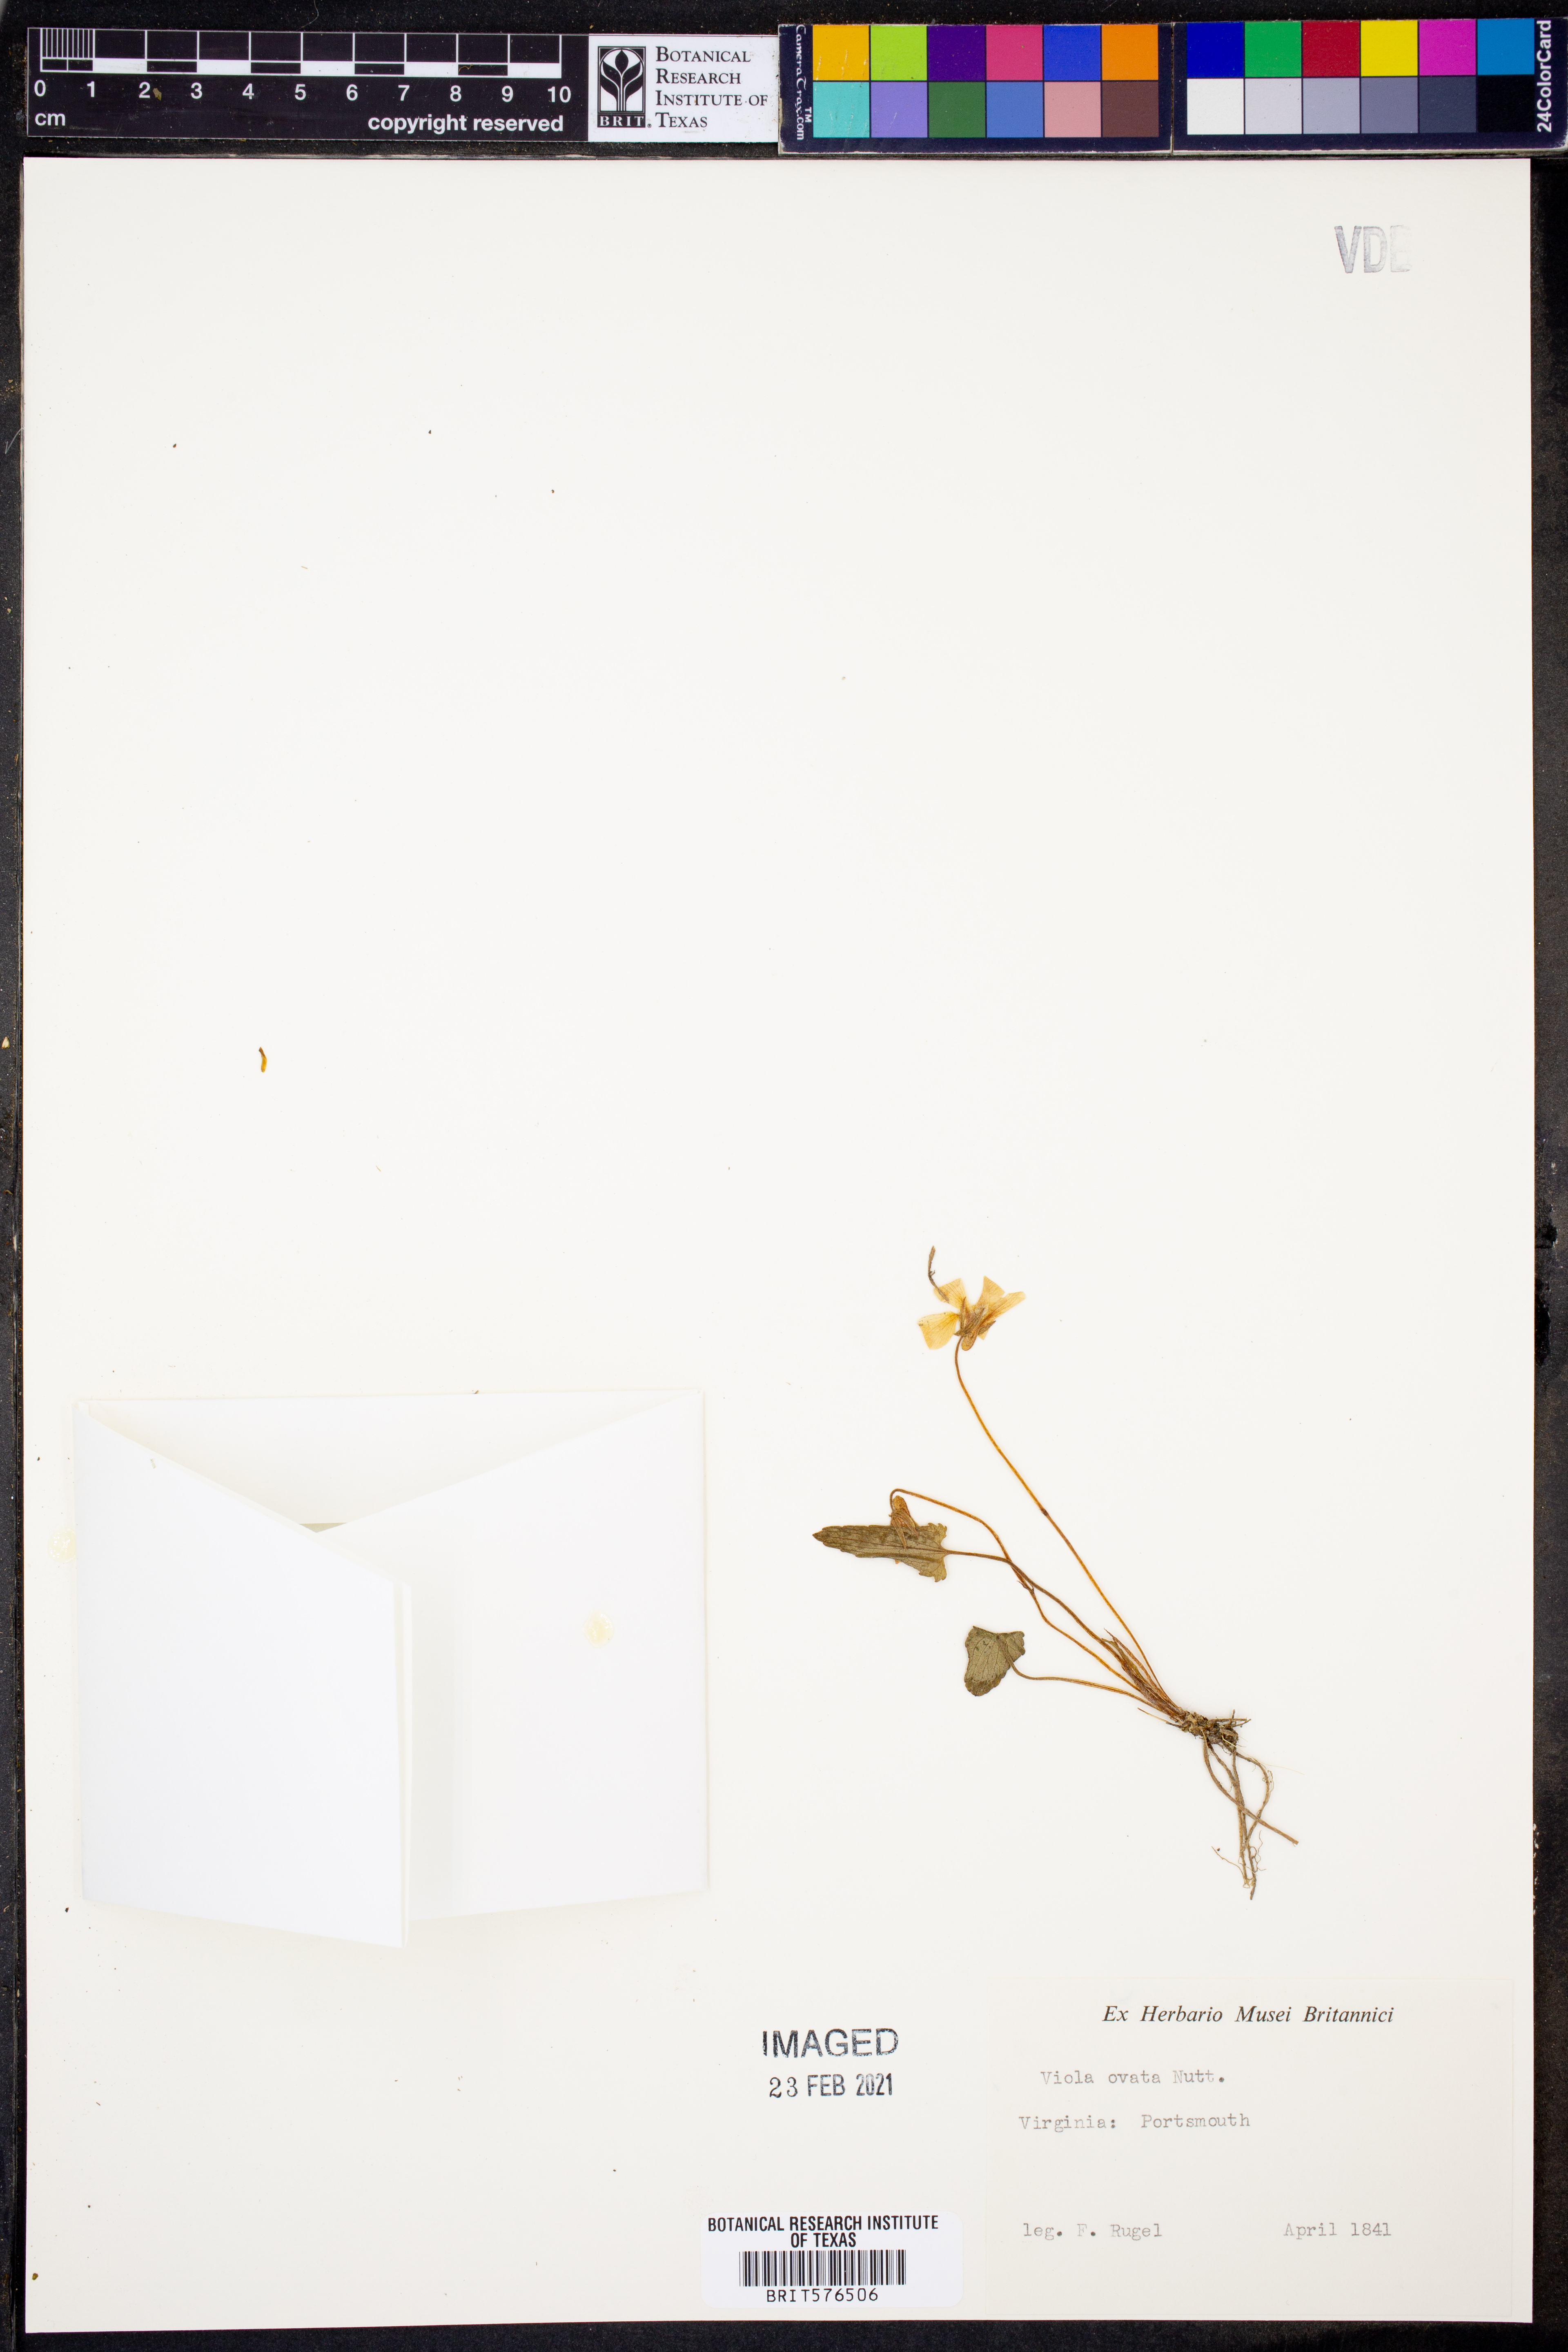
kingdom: Plantae
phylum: Tracheophyta
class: Magnoliopsida
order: Malpighiales
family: Violaceae
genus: Viola
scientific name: Viola fimbriatula
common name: Sand violet
